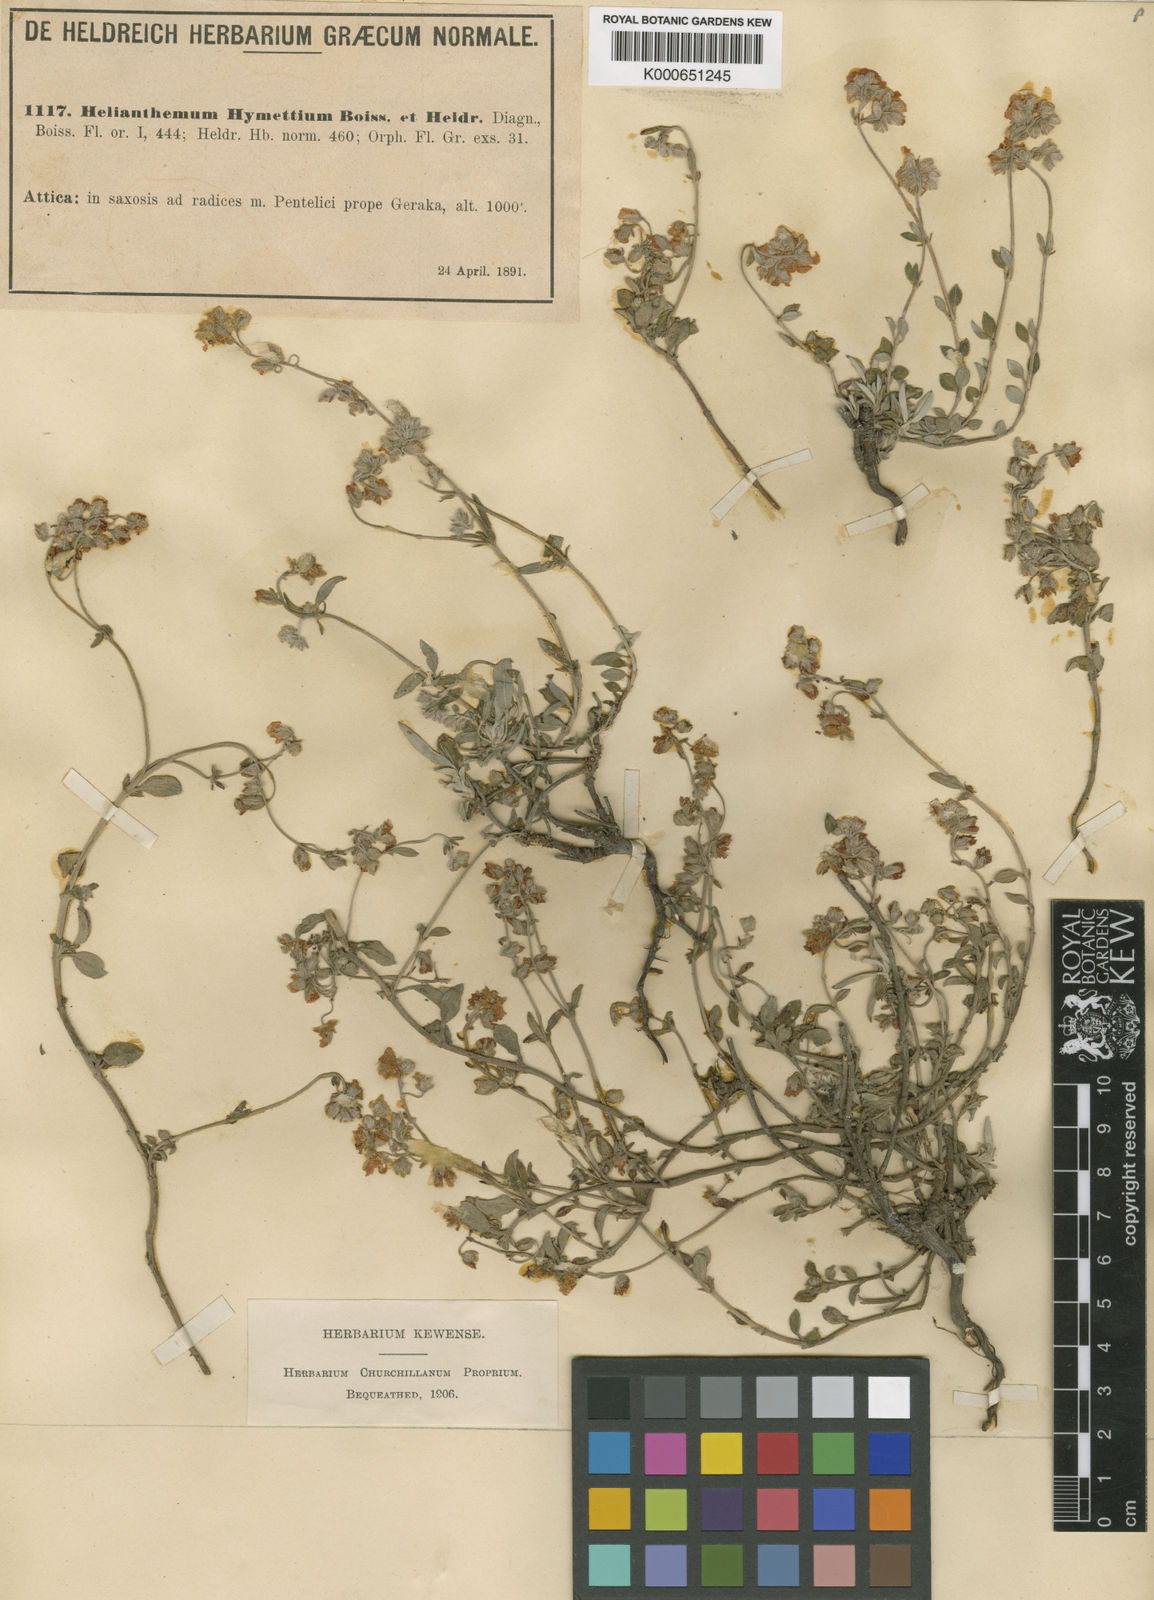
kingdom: Plantae
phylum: Tracheophyta
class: Magnoliopsida
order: Malvales
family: Cistaceae
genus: Helianthemum
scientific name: Helianthemum cinereum
